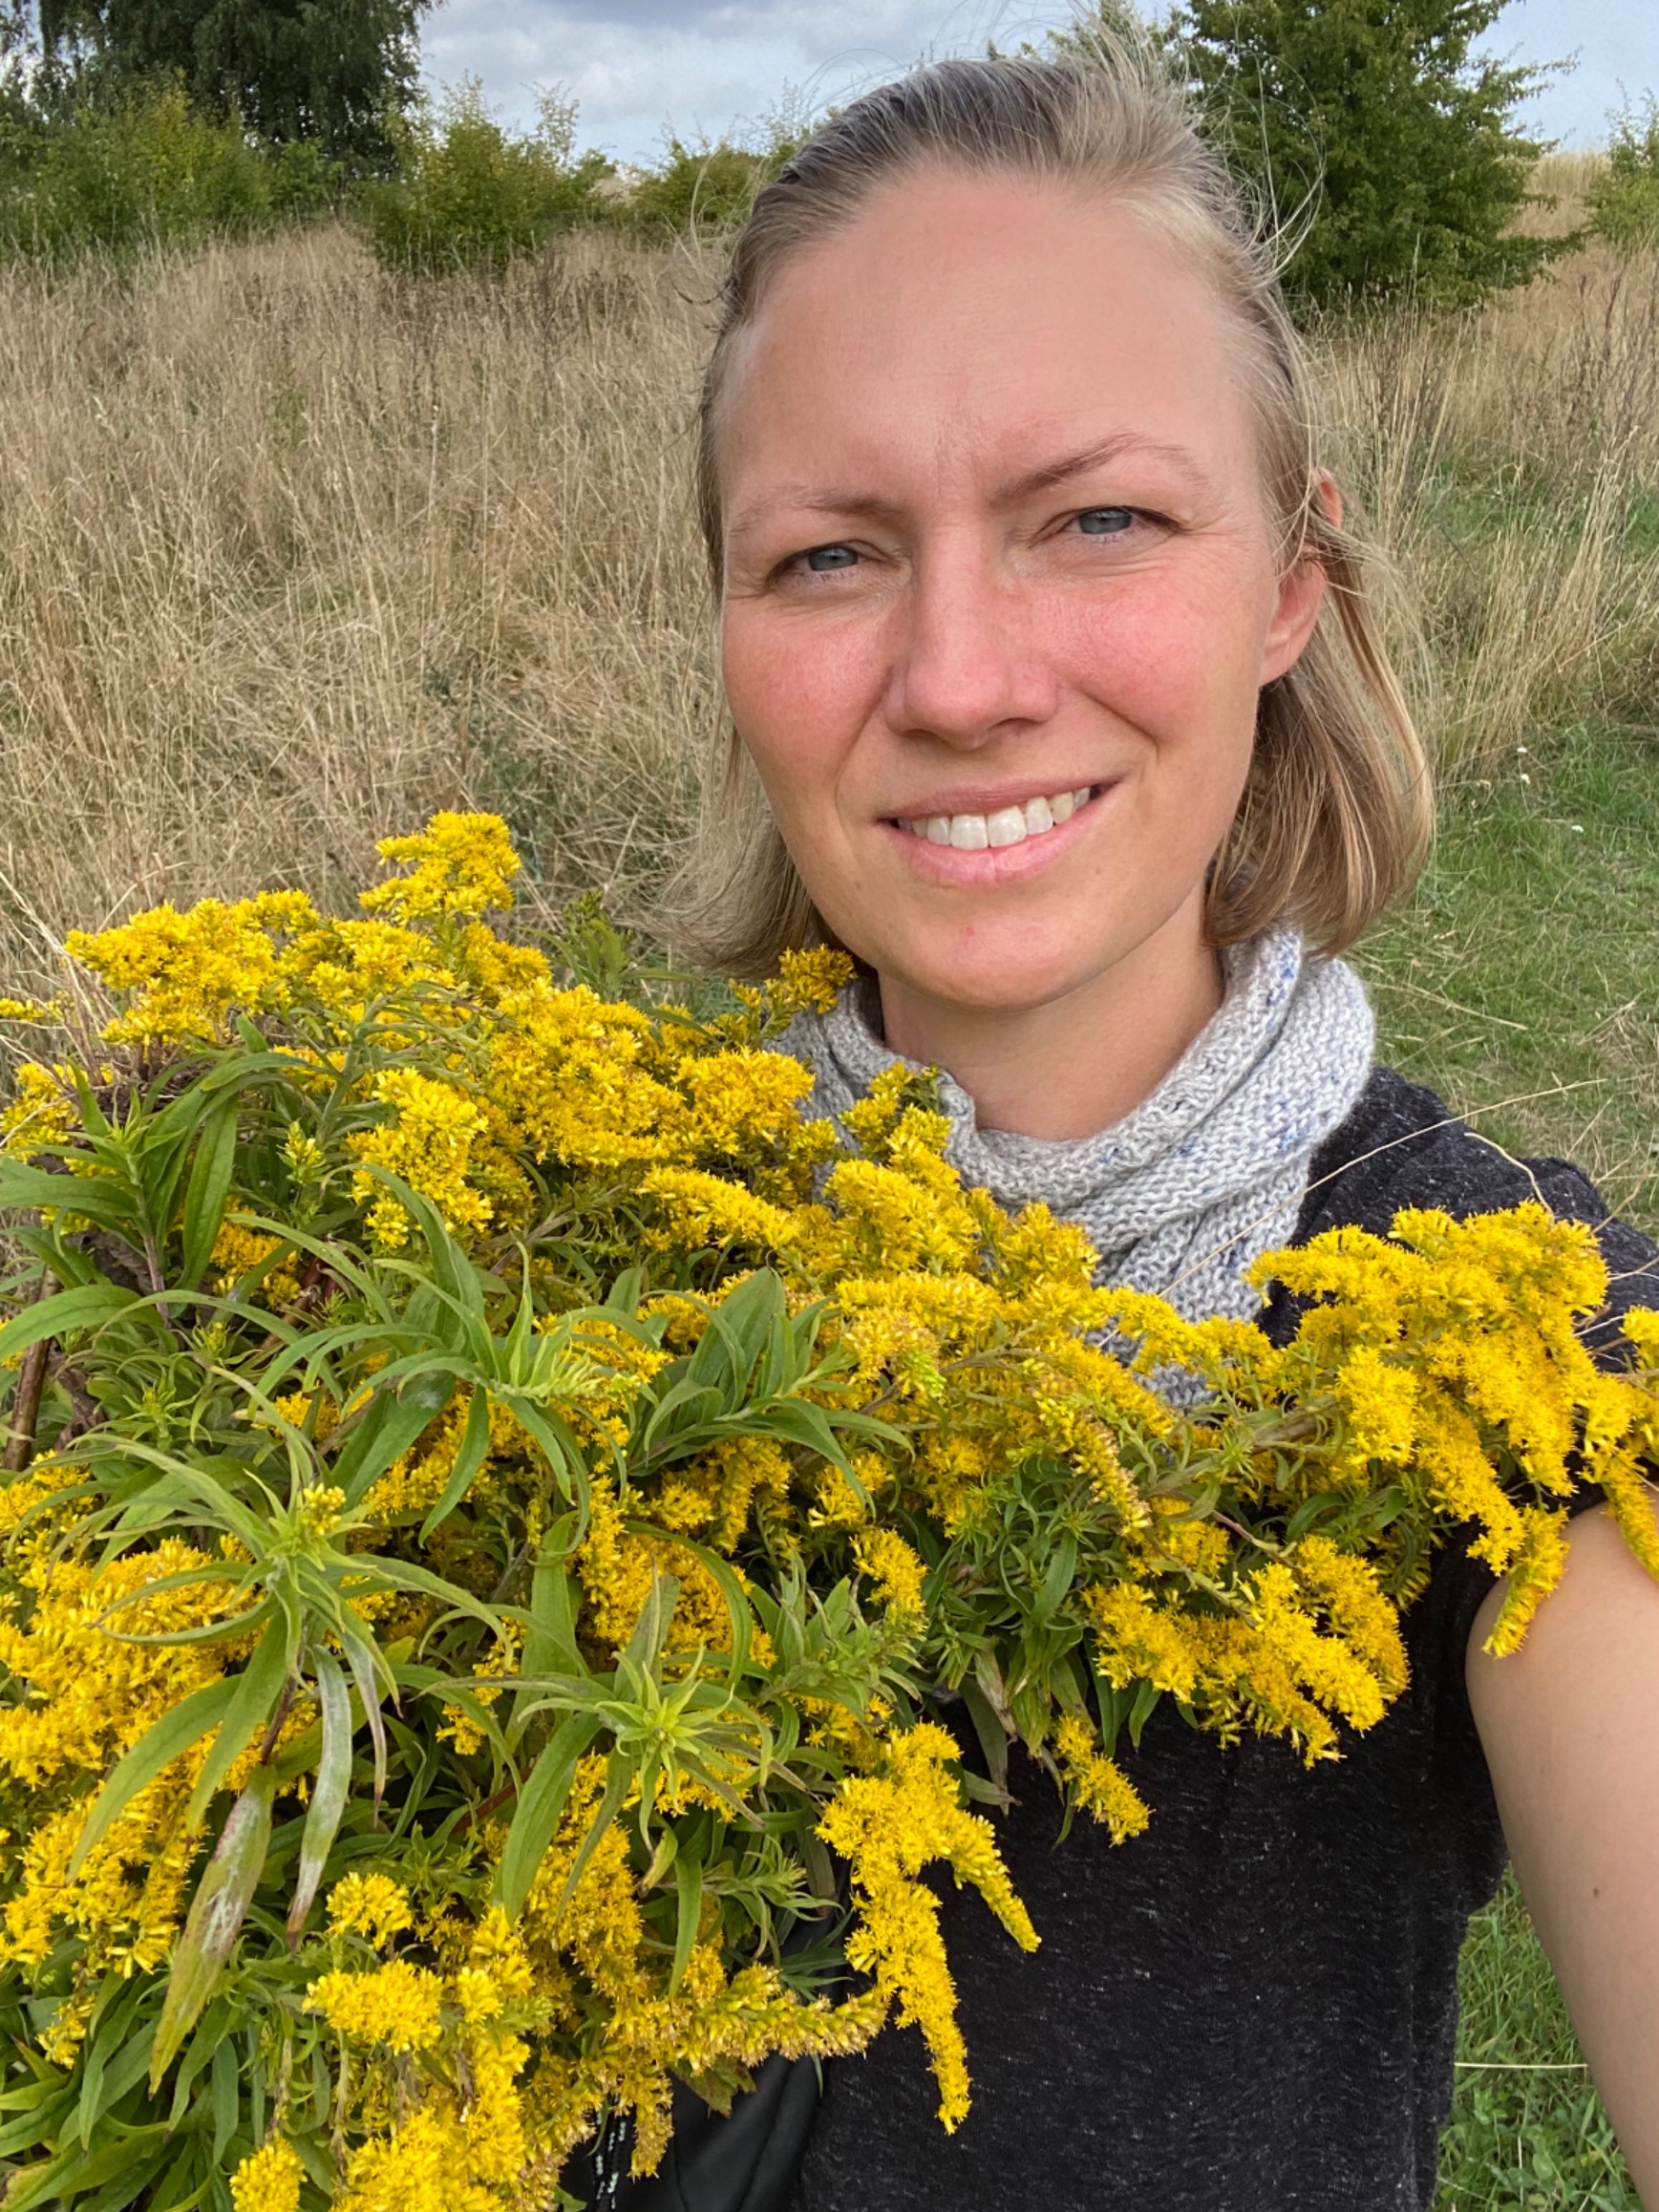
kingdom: Plantae
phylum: Tracheophyta
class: Magnoliopsida
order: Asterales
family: Asteraceae
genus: Solidago
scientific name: Solidago canadensis
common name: Kanadisk gyldenris
